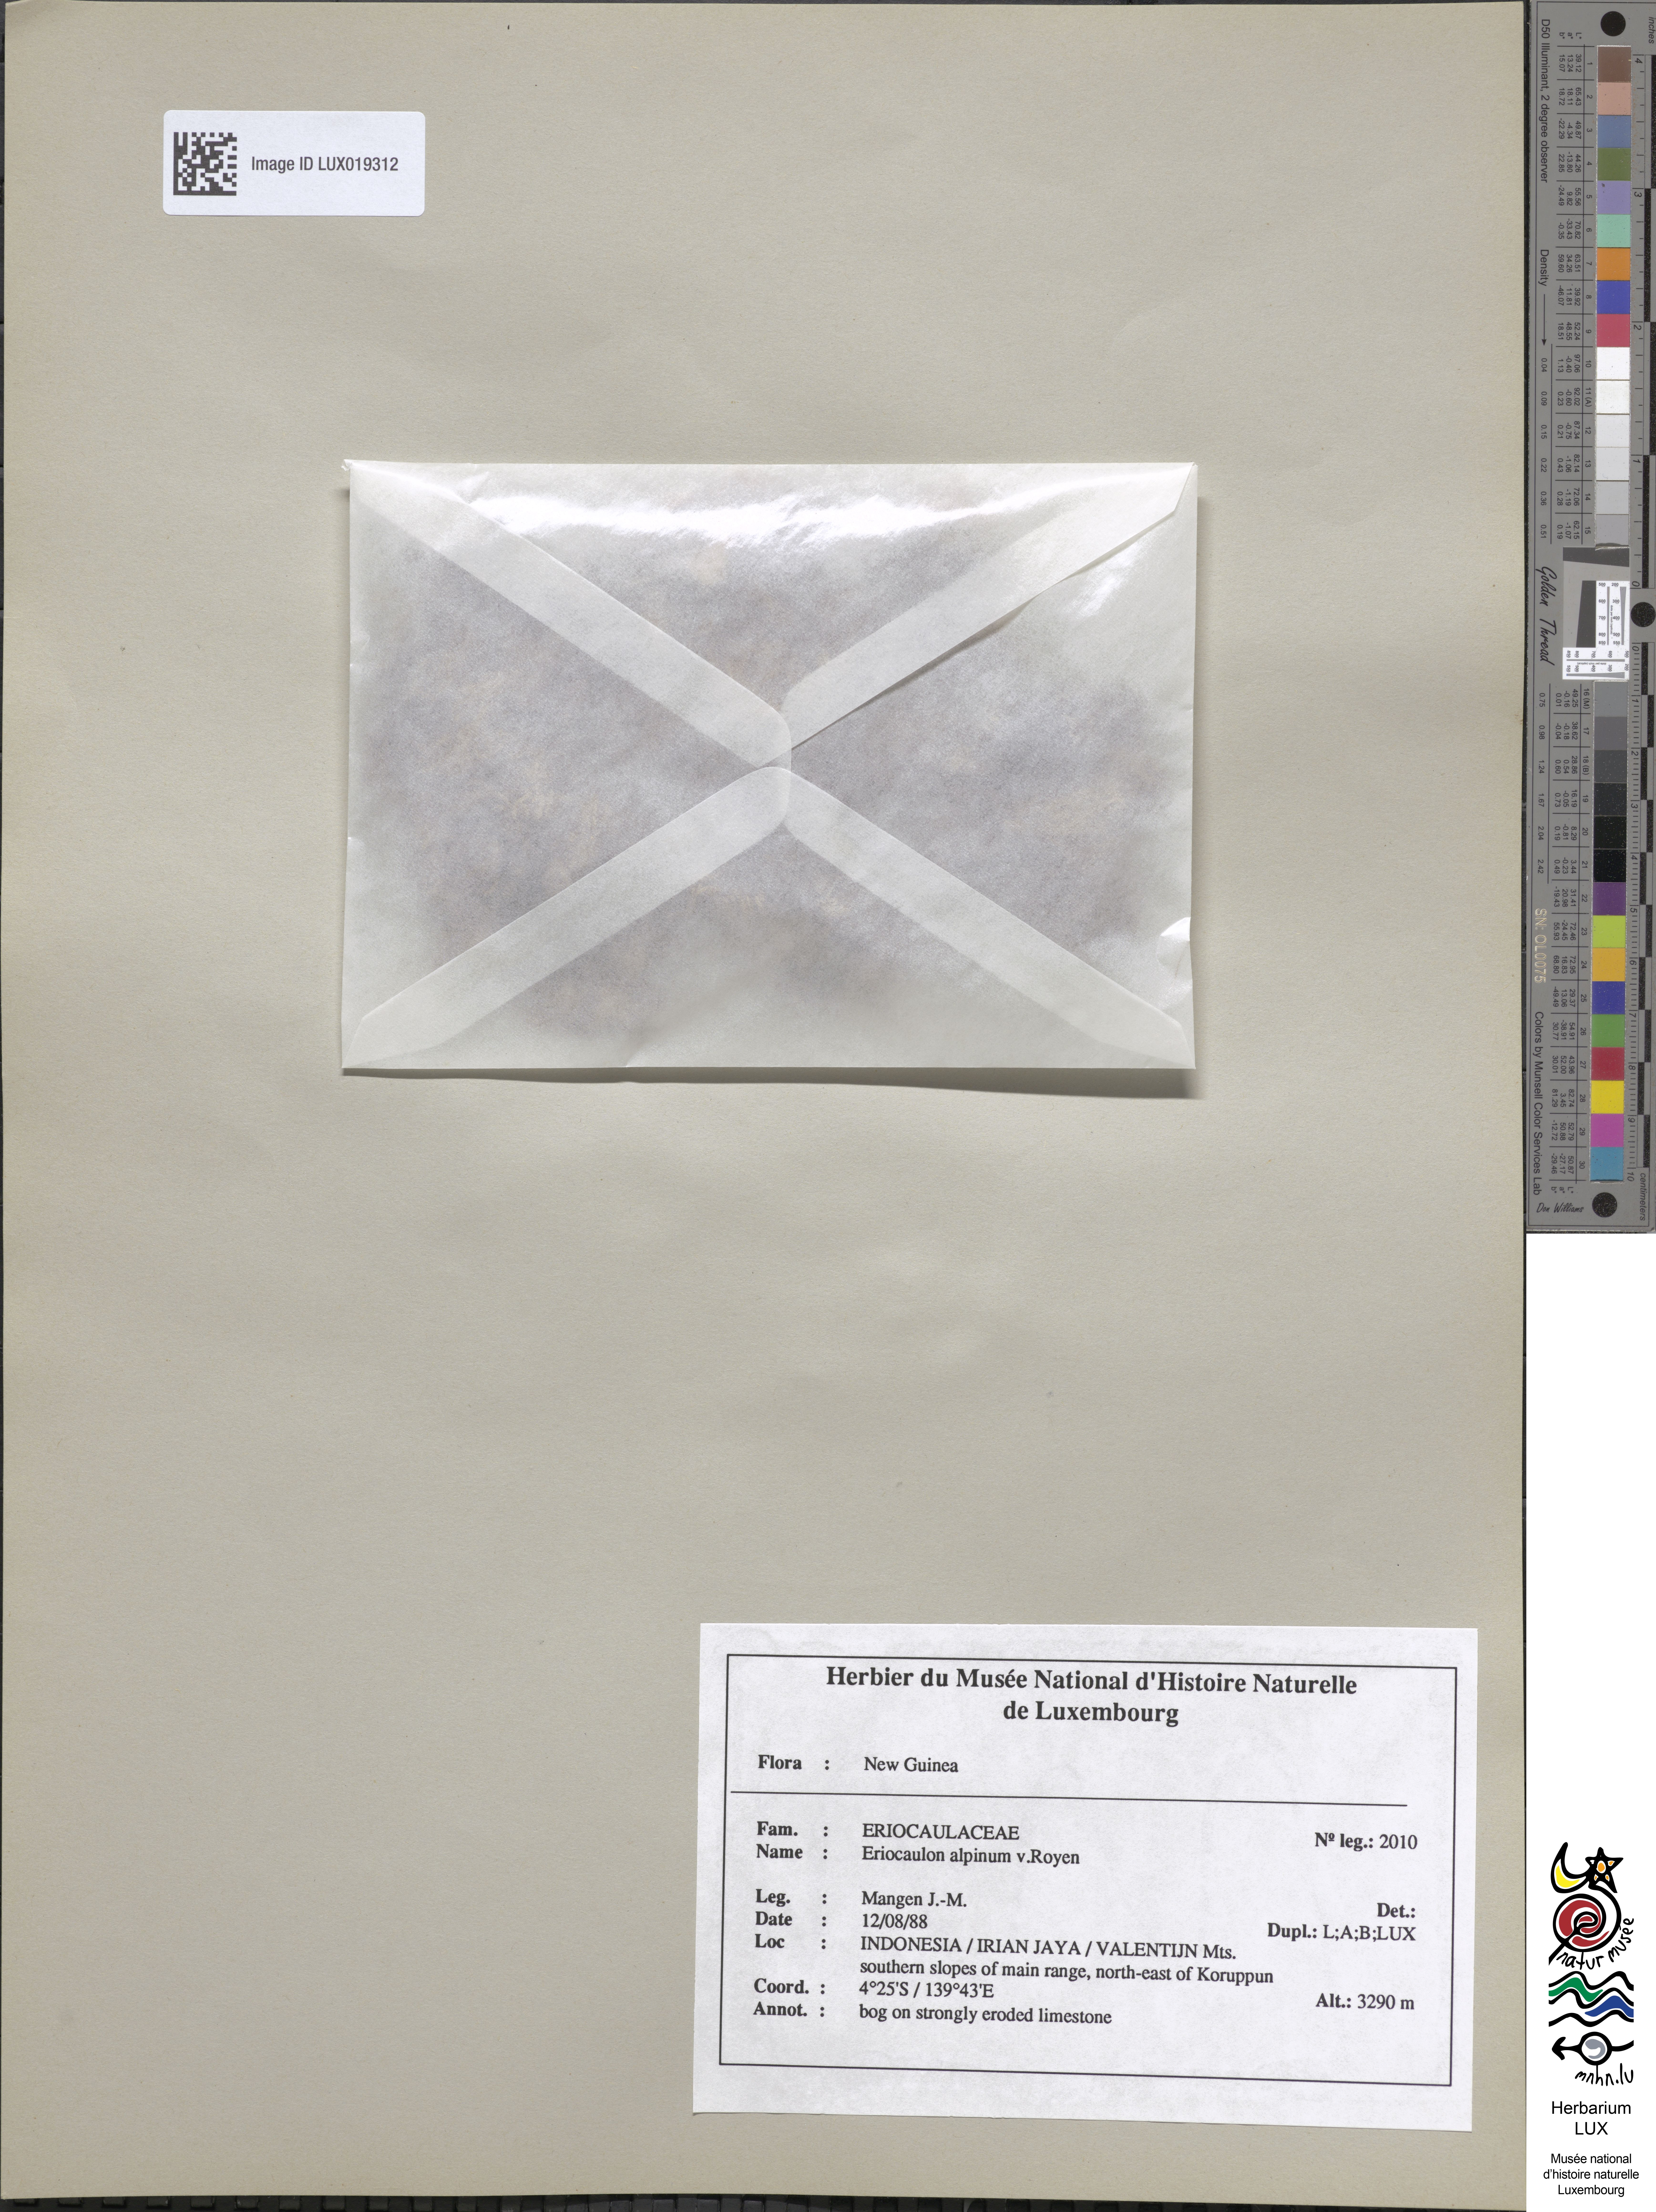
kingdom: Plantae
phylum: Tracheophyta
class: Liliopsida
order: Poales
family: Eriocaulaceae
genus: Eriocaulon
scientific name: Eriocaulon alpinum
